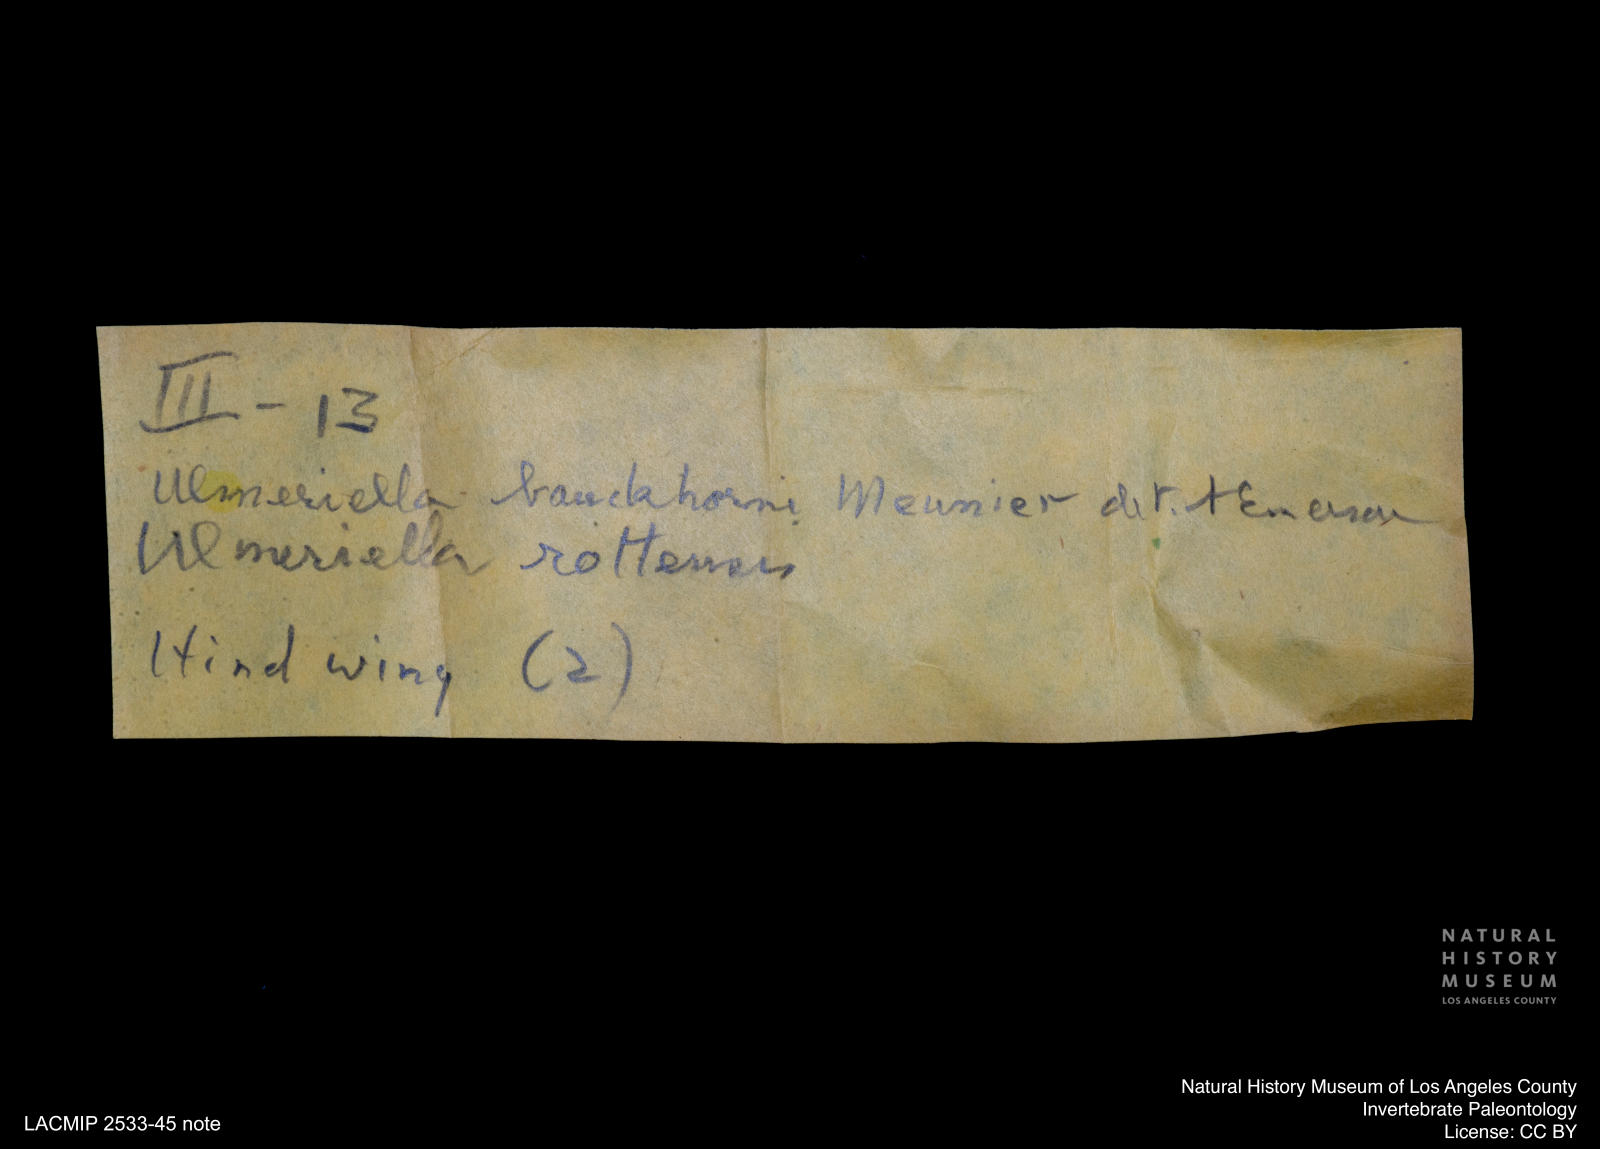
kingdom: Animalia
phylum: Arthropoda
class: Insecta
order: Blattodea
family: Hodotermitidae
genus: Ulmeriella
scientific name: Ulmeriella bauckhorni
